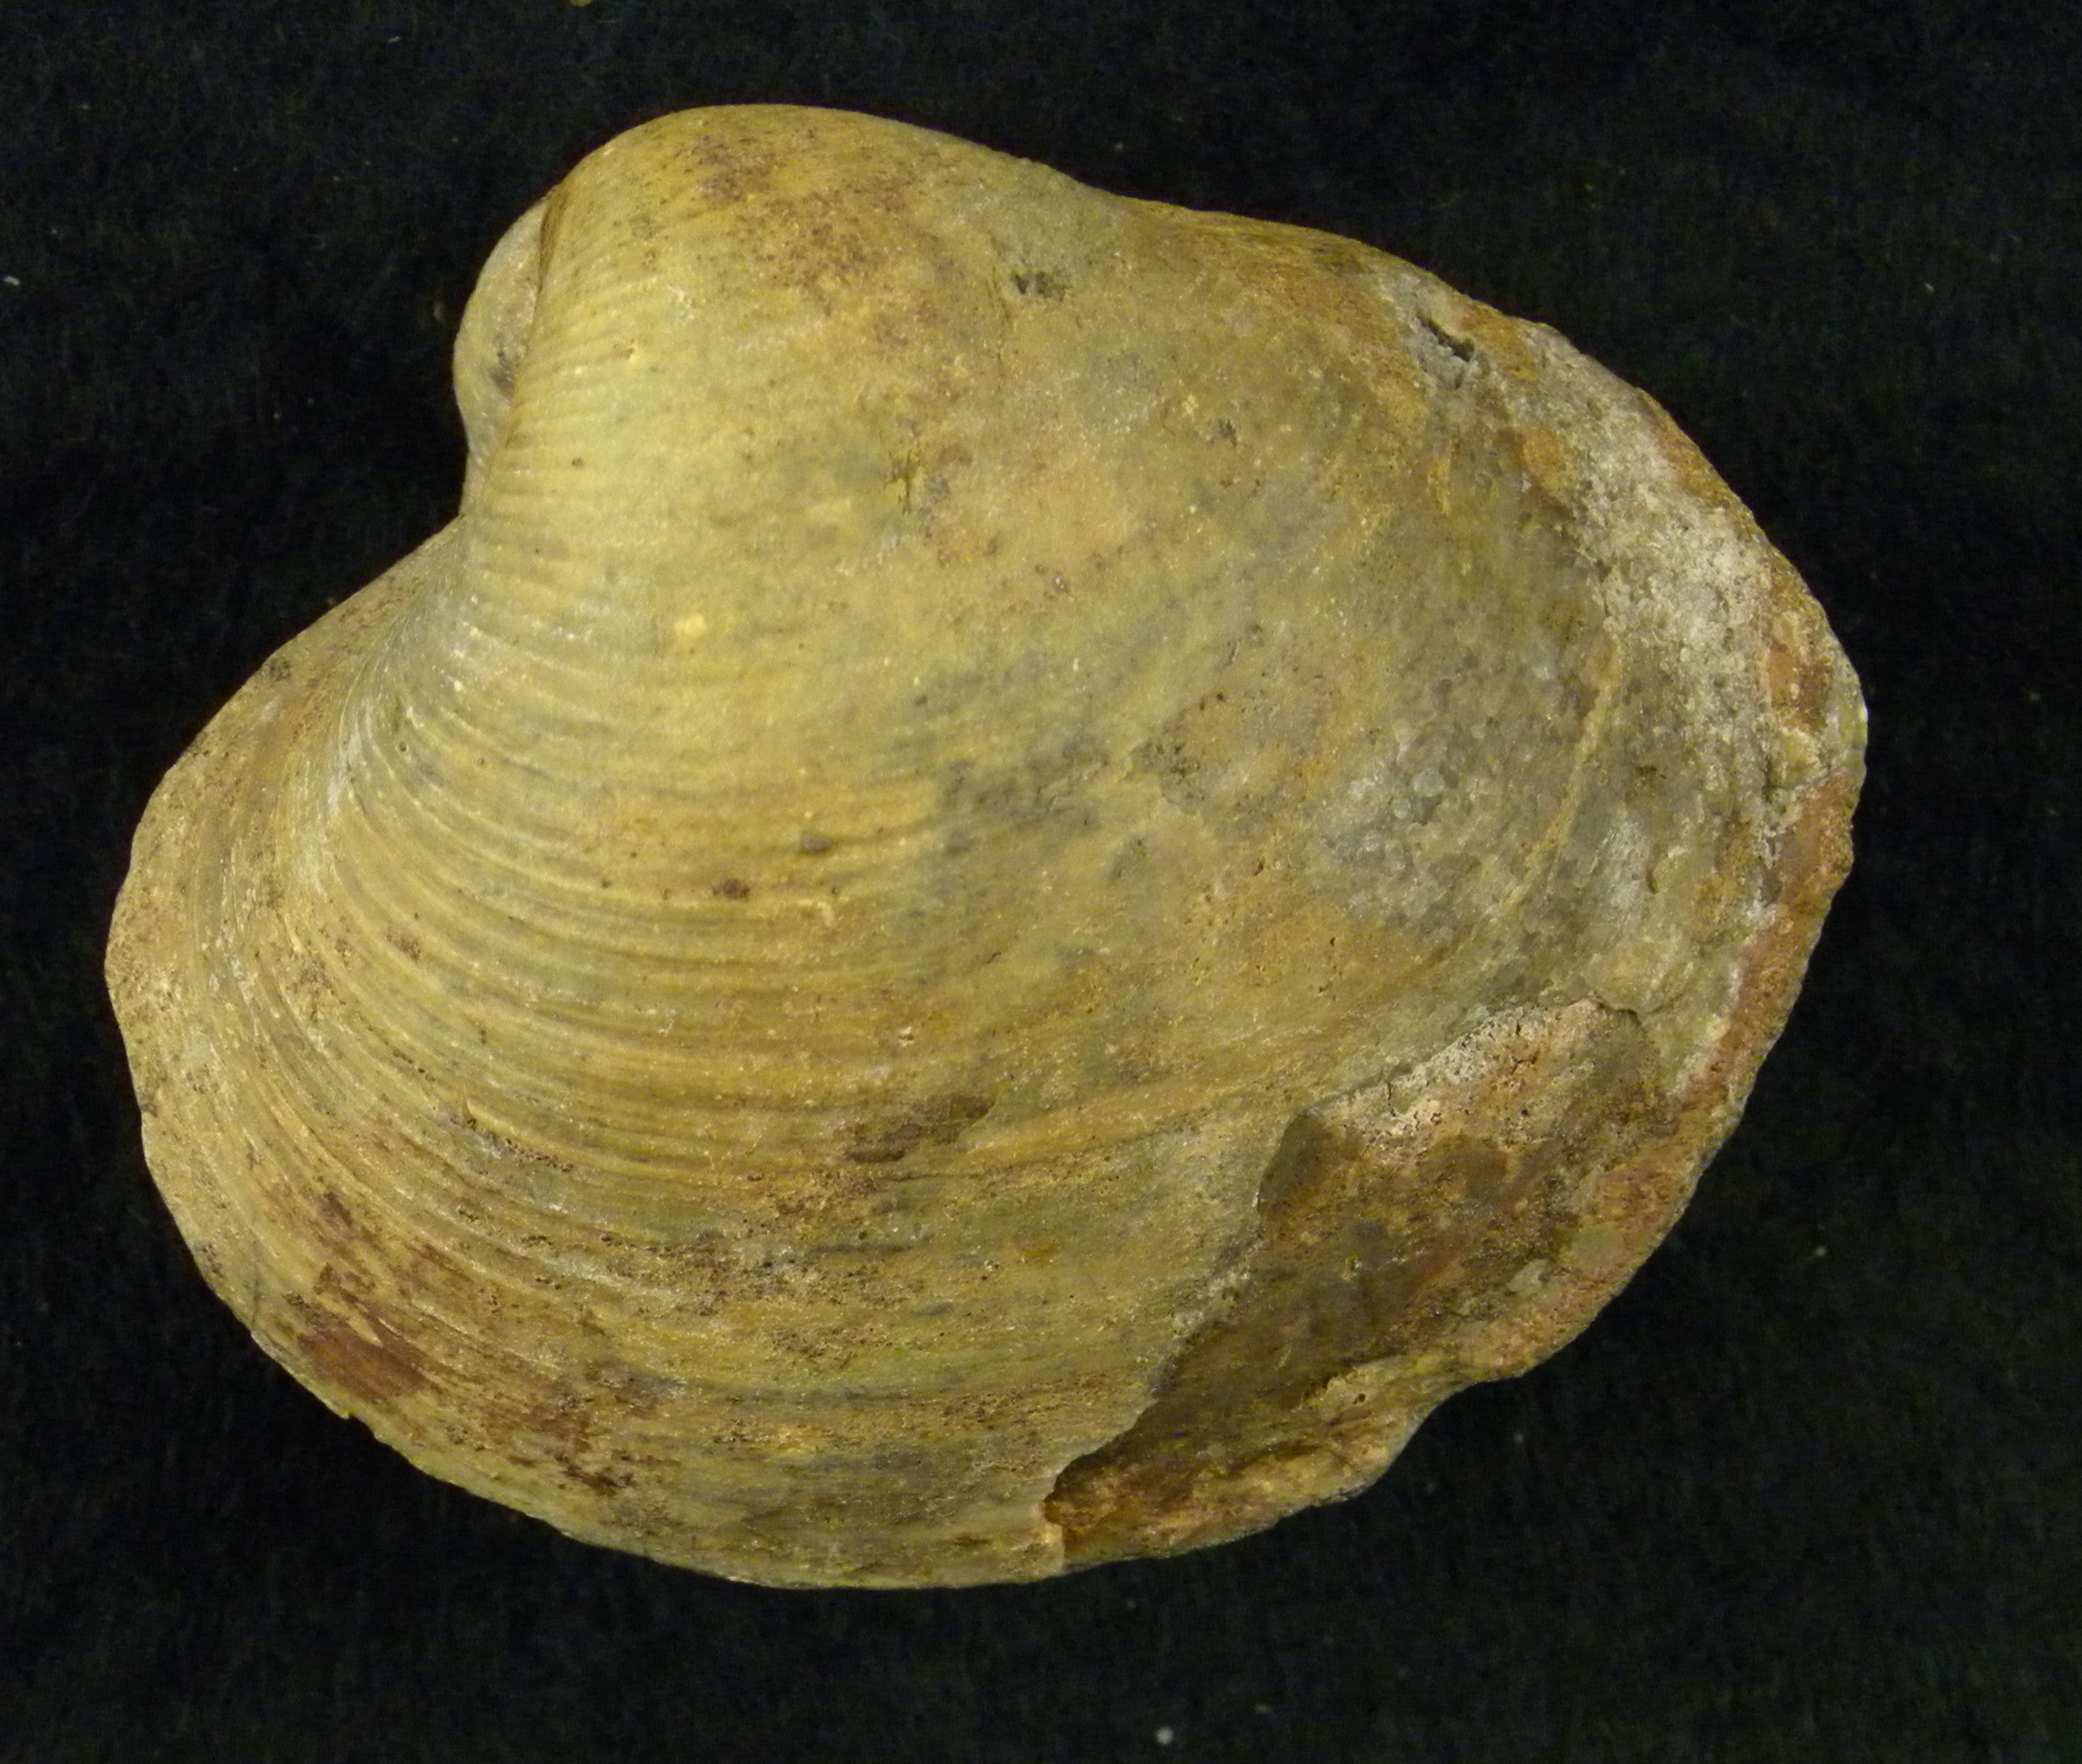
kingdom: Animalia
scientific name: Animalia
